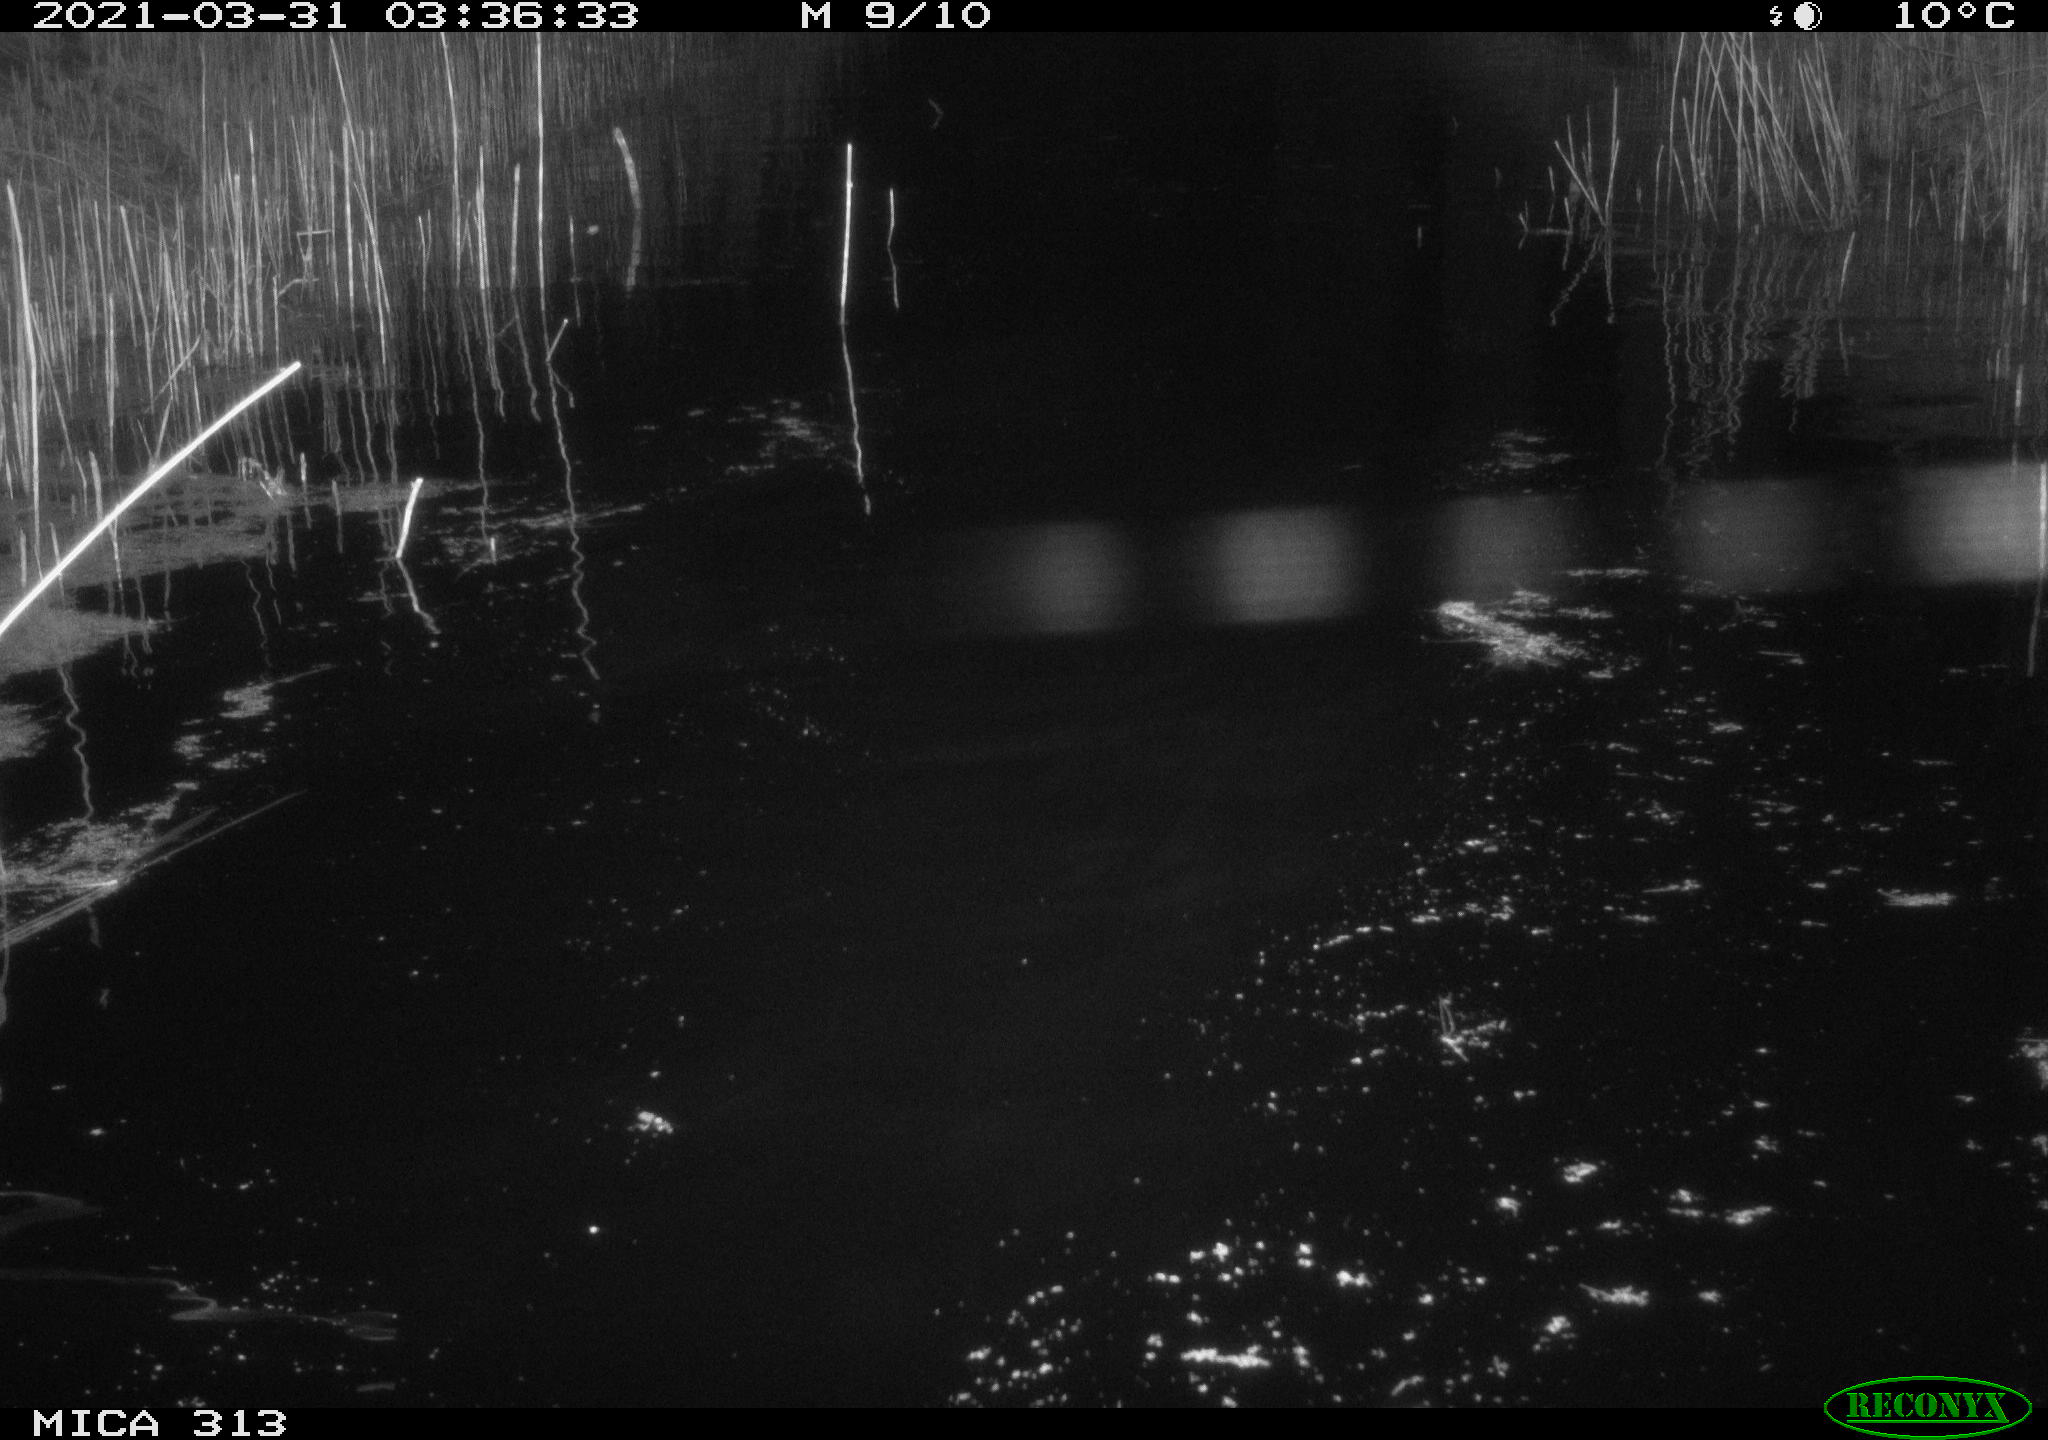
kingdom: Animalia
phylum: Chordata
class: Aves
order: Anseriformes
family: Anatidae
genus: Anas
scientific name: Anas platyrhynchos
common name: Mallard
